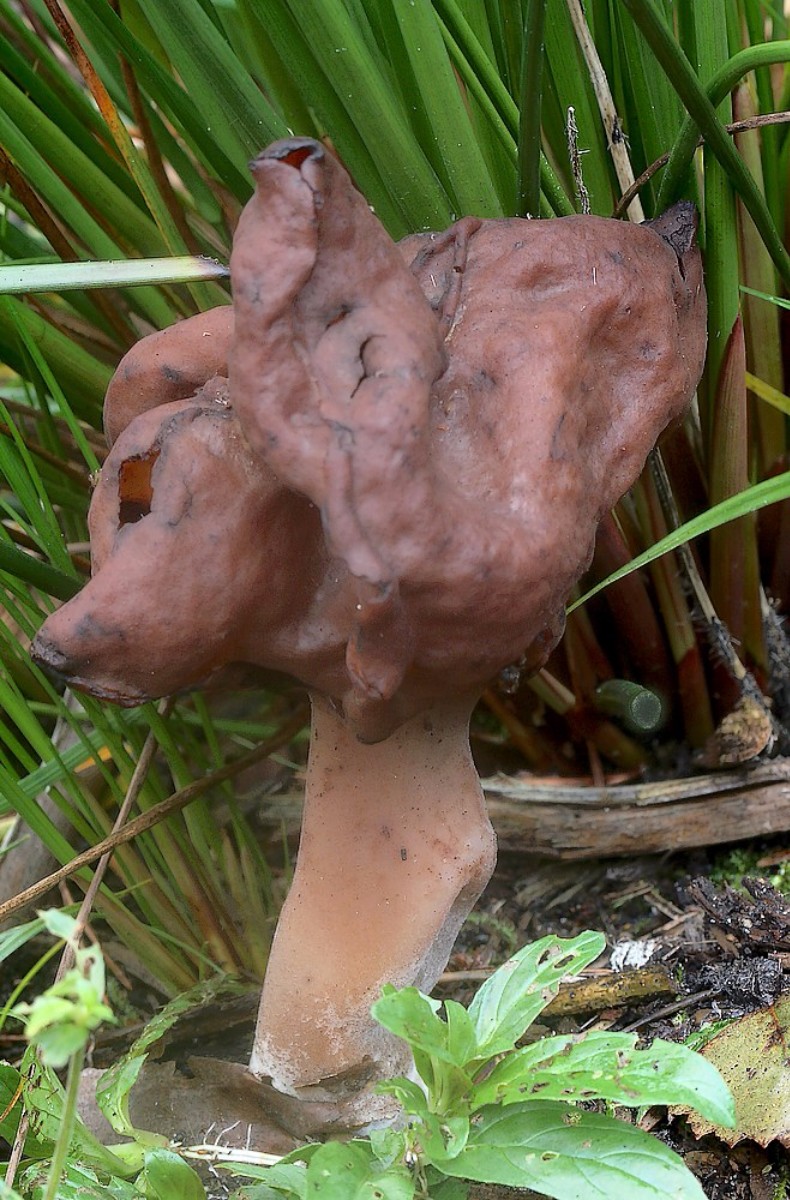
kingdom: Fungi
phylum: Ascomycota
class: Pezizomycetes
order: Pezizales
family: Discinaceae
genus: Gyromitra
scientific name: Gyromitra infula
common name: bispehue-stenmorkel
